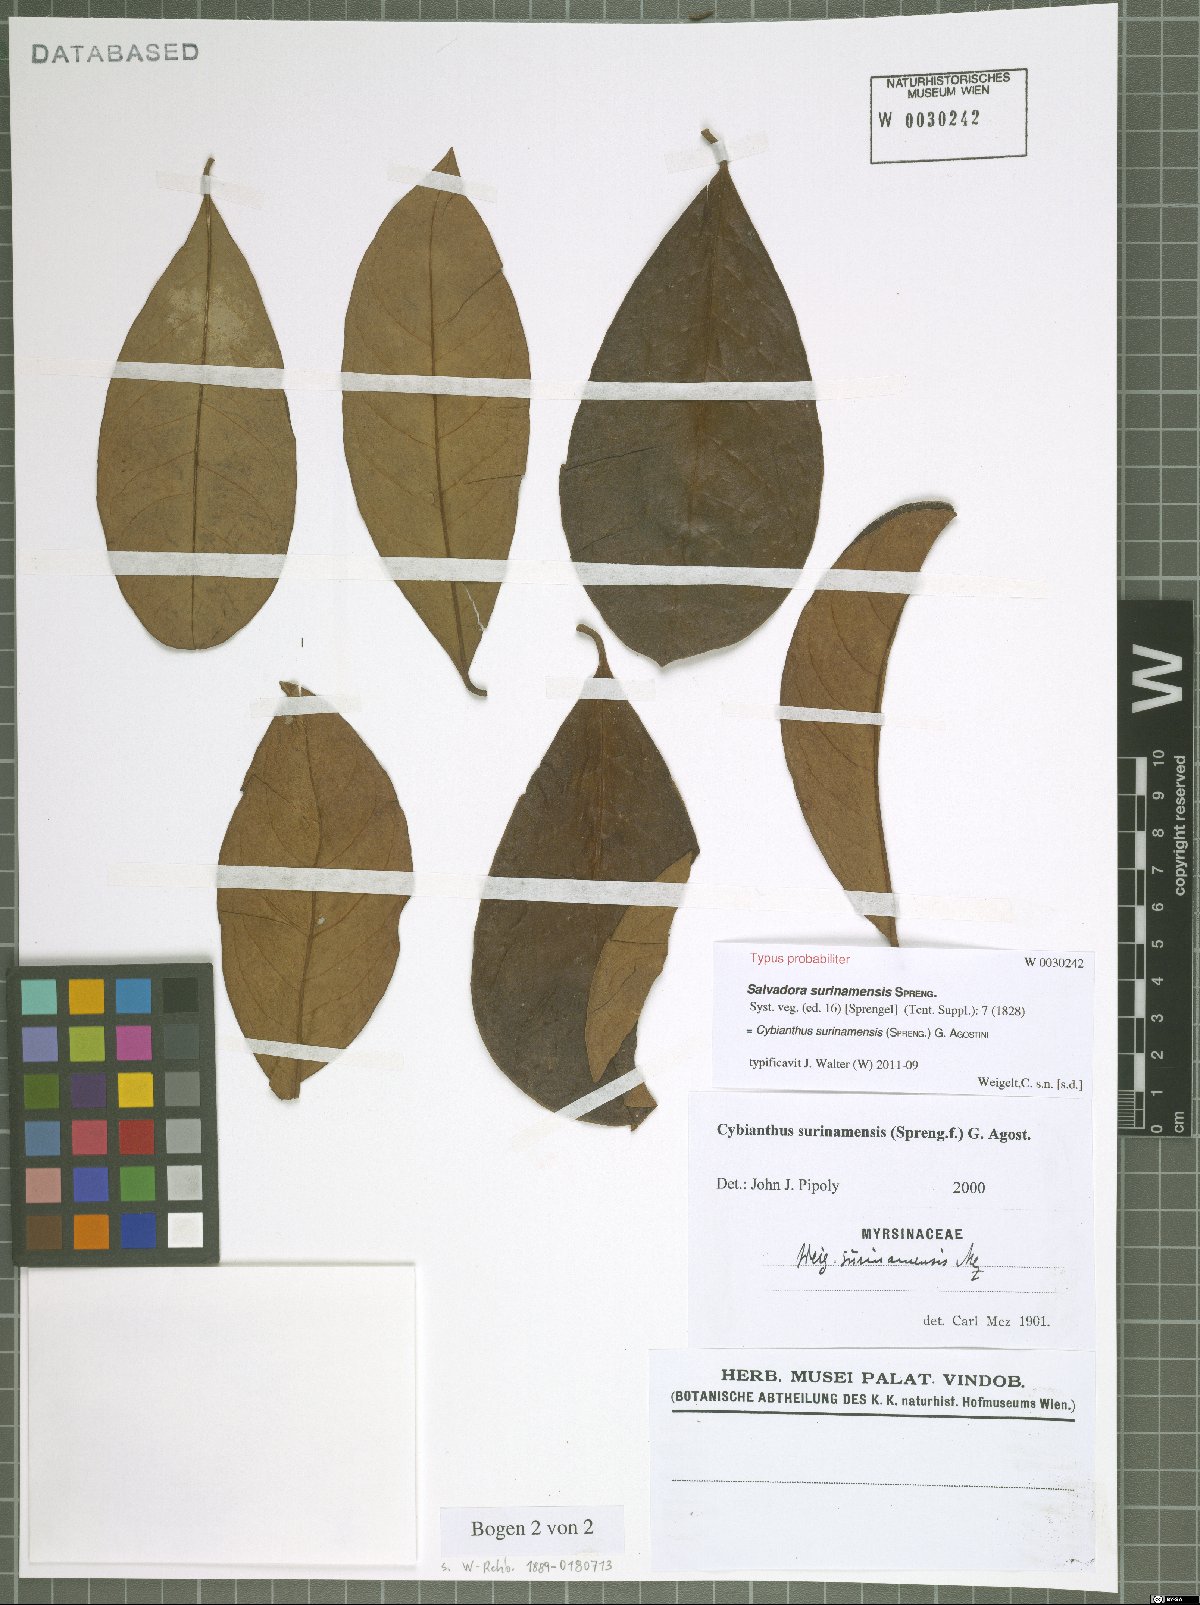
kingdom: Plantae
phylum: Tracheophyta
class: Magnoliopsida
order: Ericales
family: Primulaceae
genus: Cybianthus
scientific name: Cybianthus surinamensis
